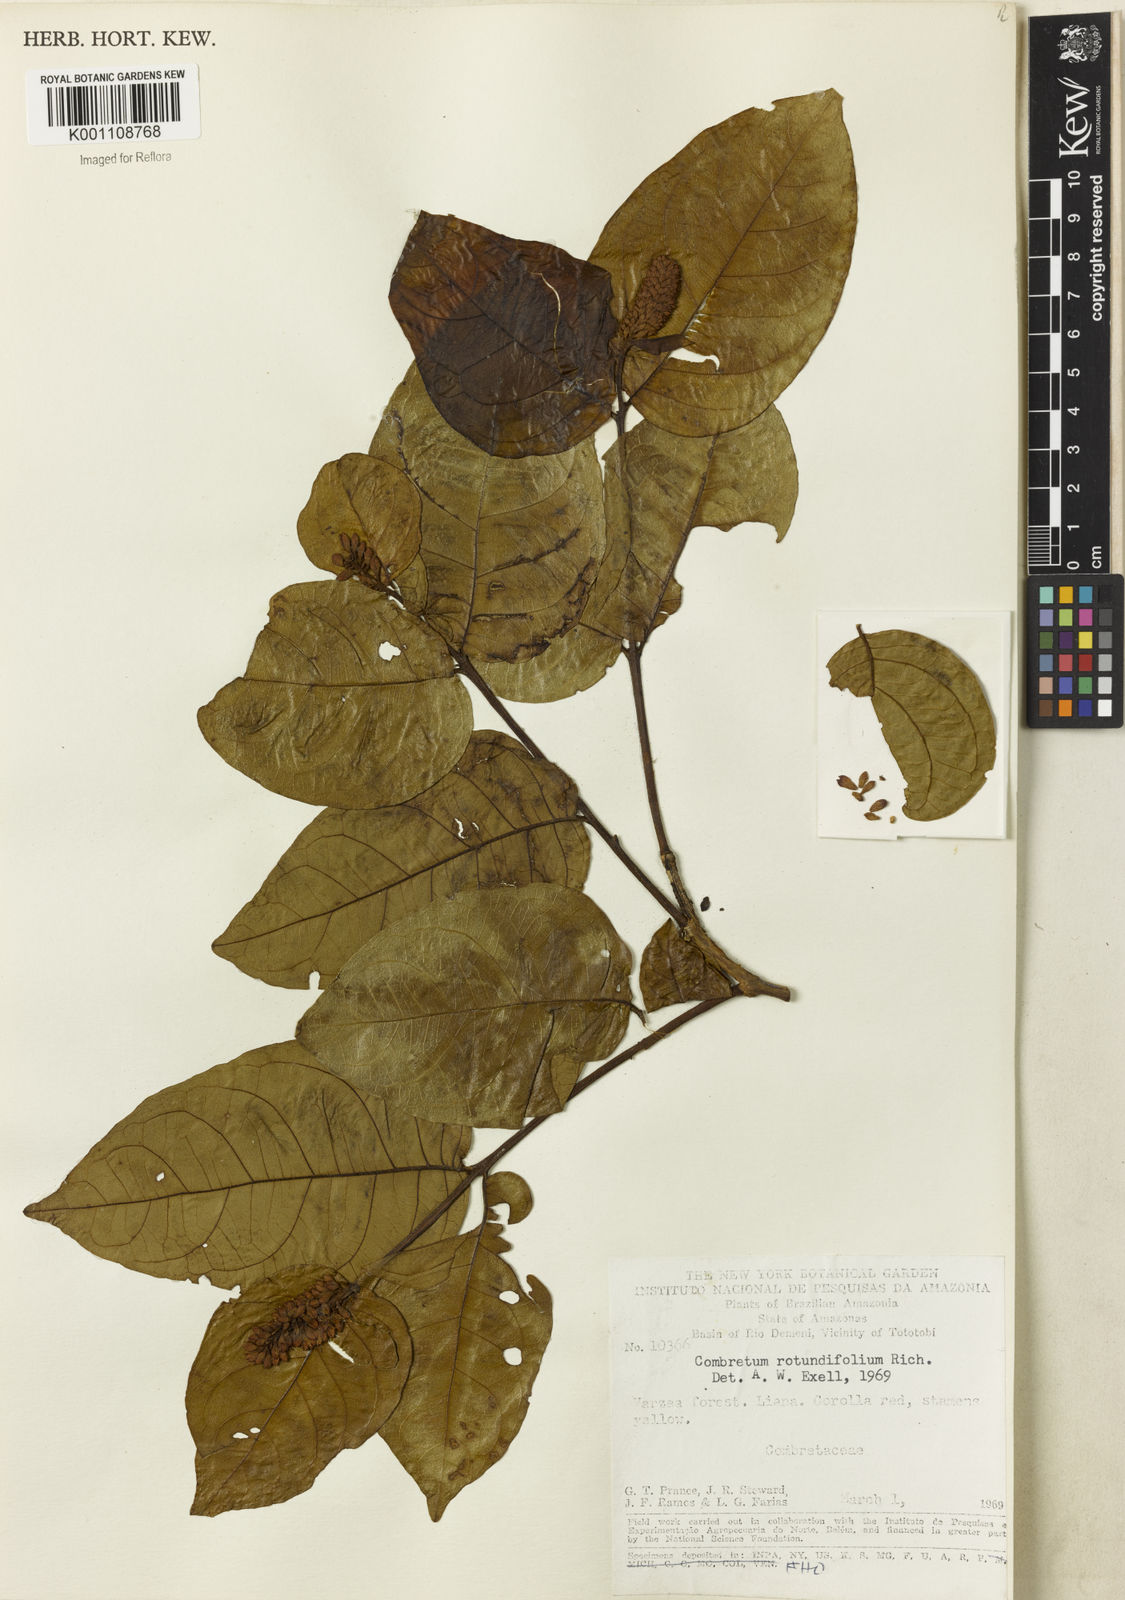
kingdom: Plantae
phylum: Tracheophyta
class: Magnoliopsida
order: Myrtales
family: Combretaceae
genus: Combretum
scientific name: Combretum rotundifolium
